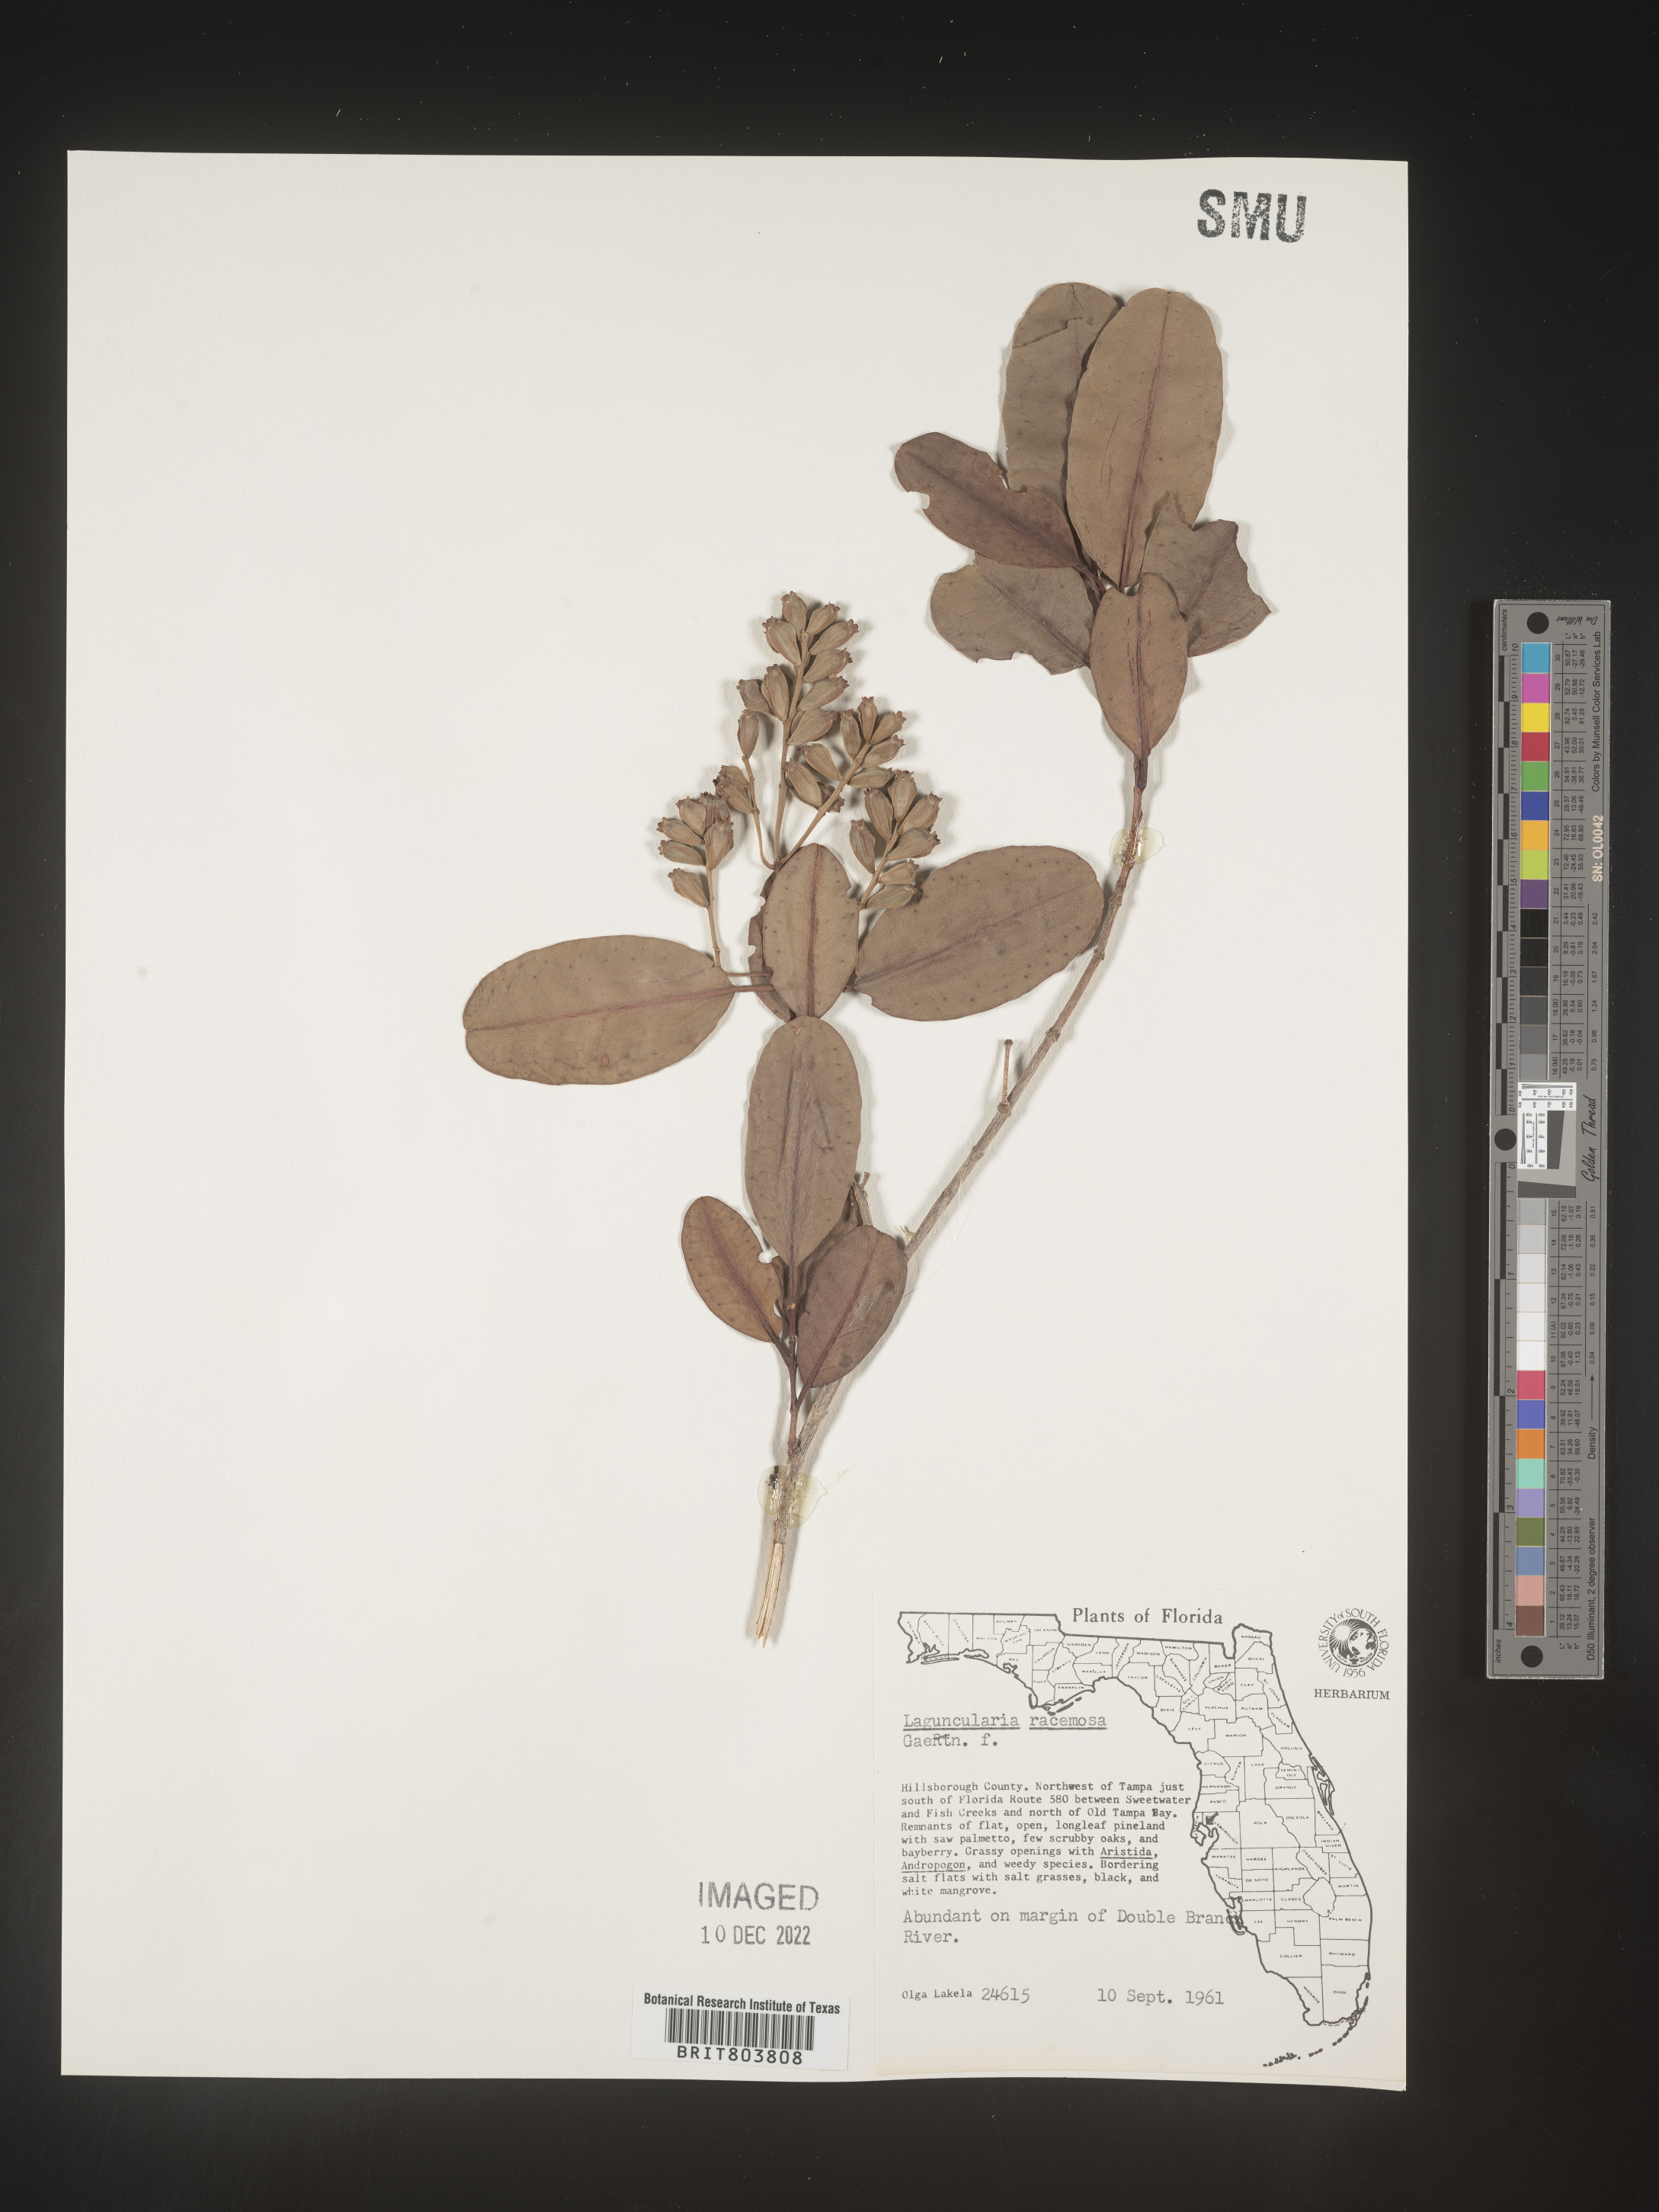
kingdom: Plantae
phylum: Tracheophyta
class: Magnoliopsida
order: Myrtales
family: Combretaceae
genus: Laguncularia
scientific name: Laguncularia
